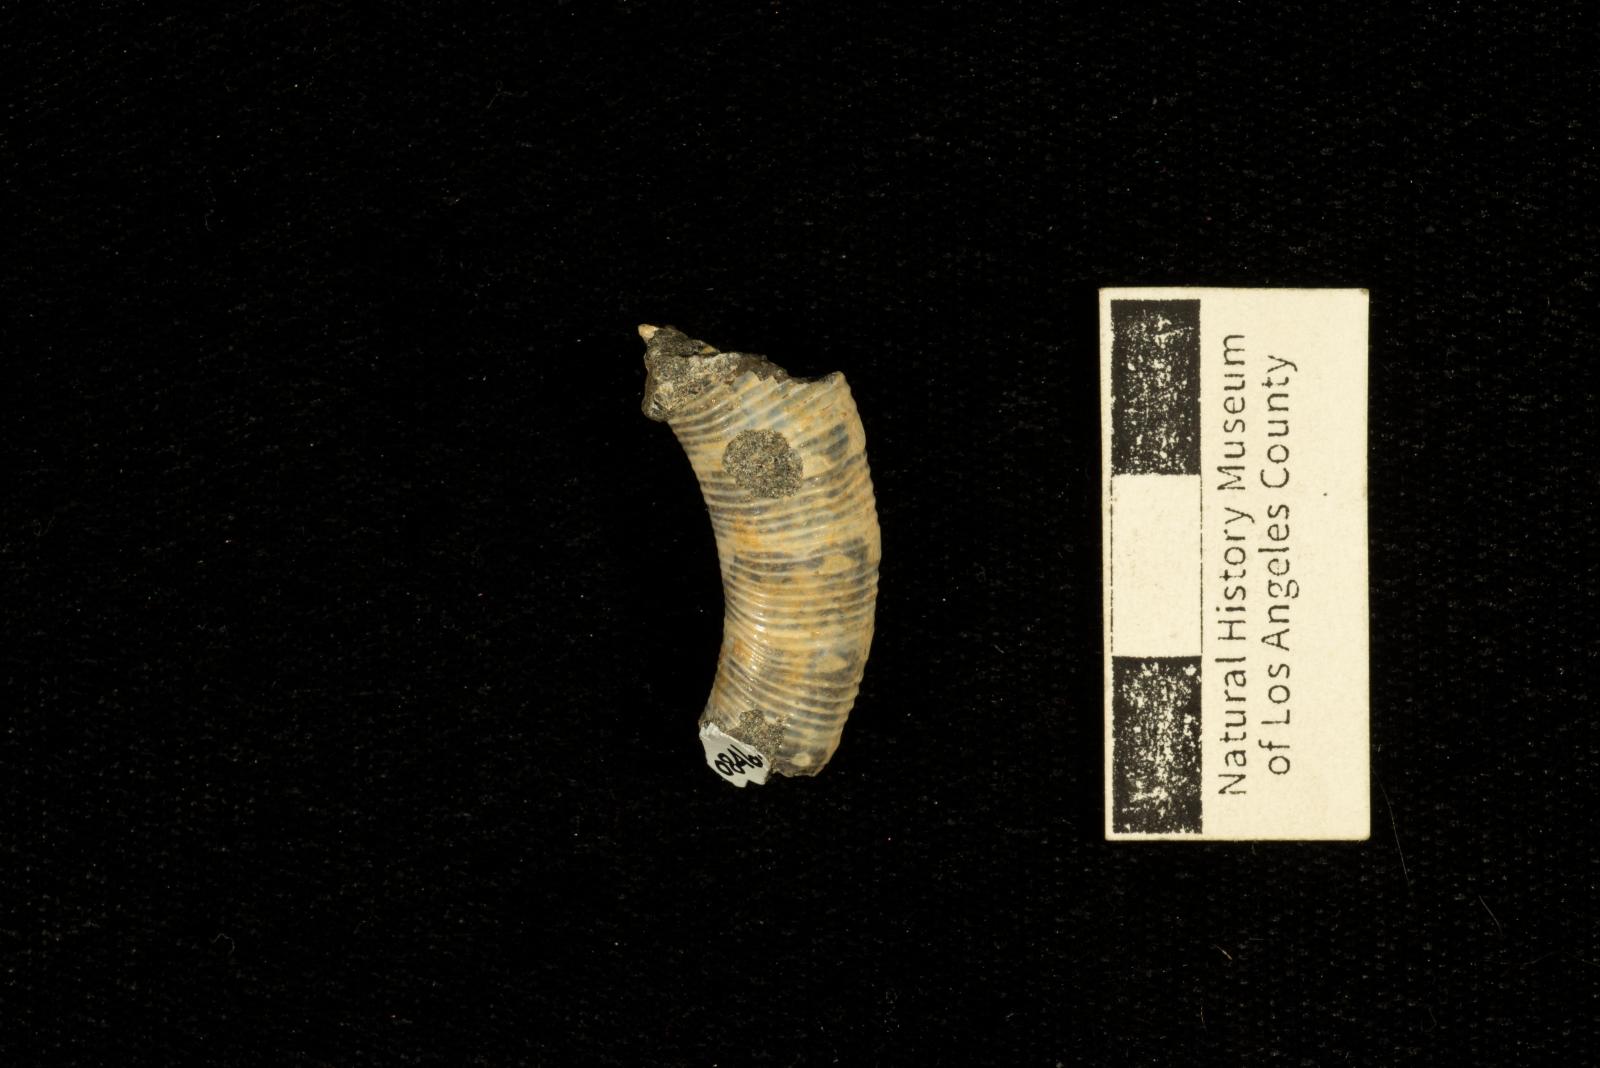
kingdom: Animalia
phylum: Mollusca
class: Cephalopoda
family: Nostoceratidae
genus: Hyphantoceras
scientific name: Hyphantoceras venustum
